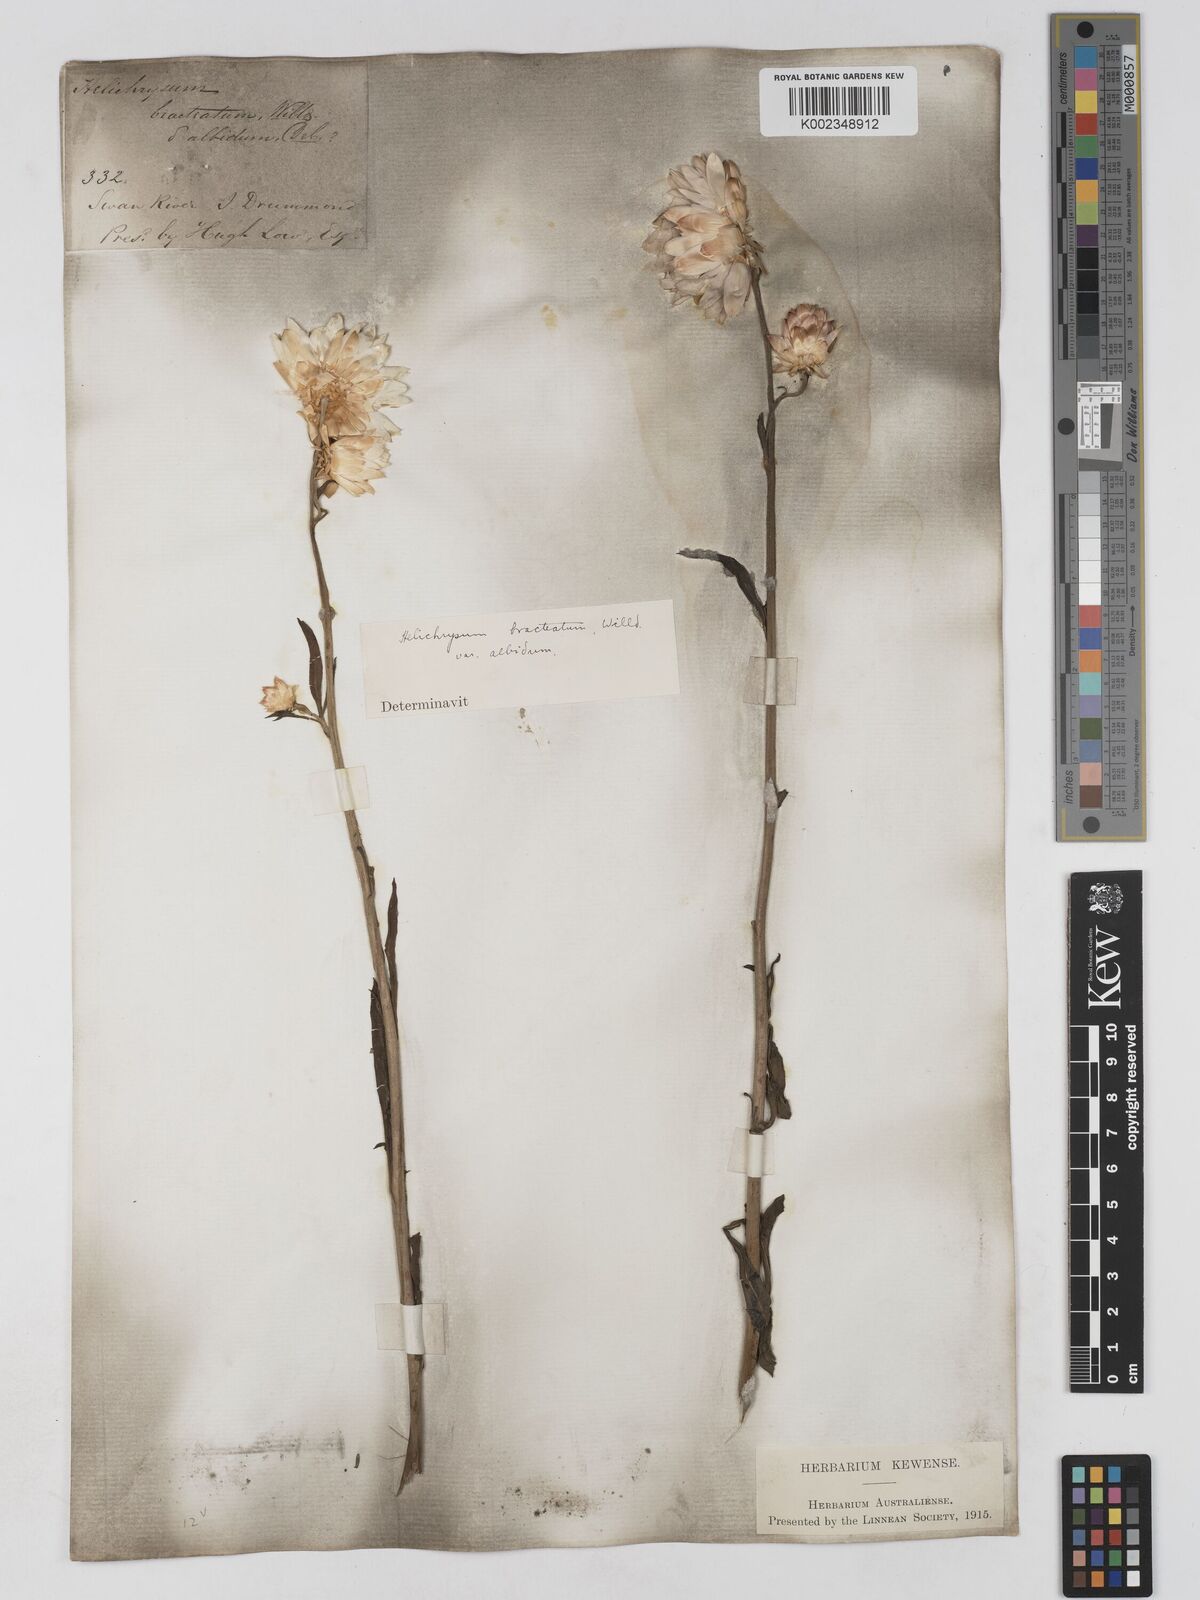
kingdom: Plantae
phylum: Tracheophyta
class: Magnoliopsida
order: Asterales
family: Asteraceae
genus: Xerochrysum
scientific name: Xerochrysum bracteatum
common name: Bracted strawflower
